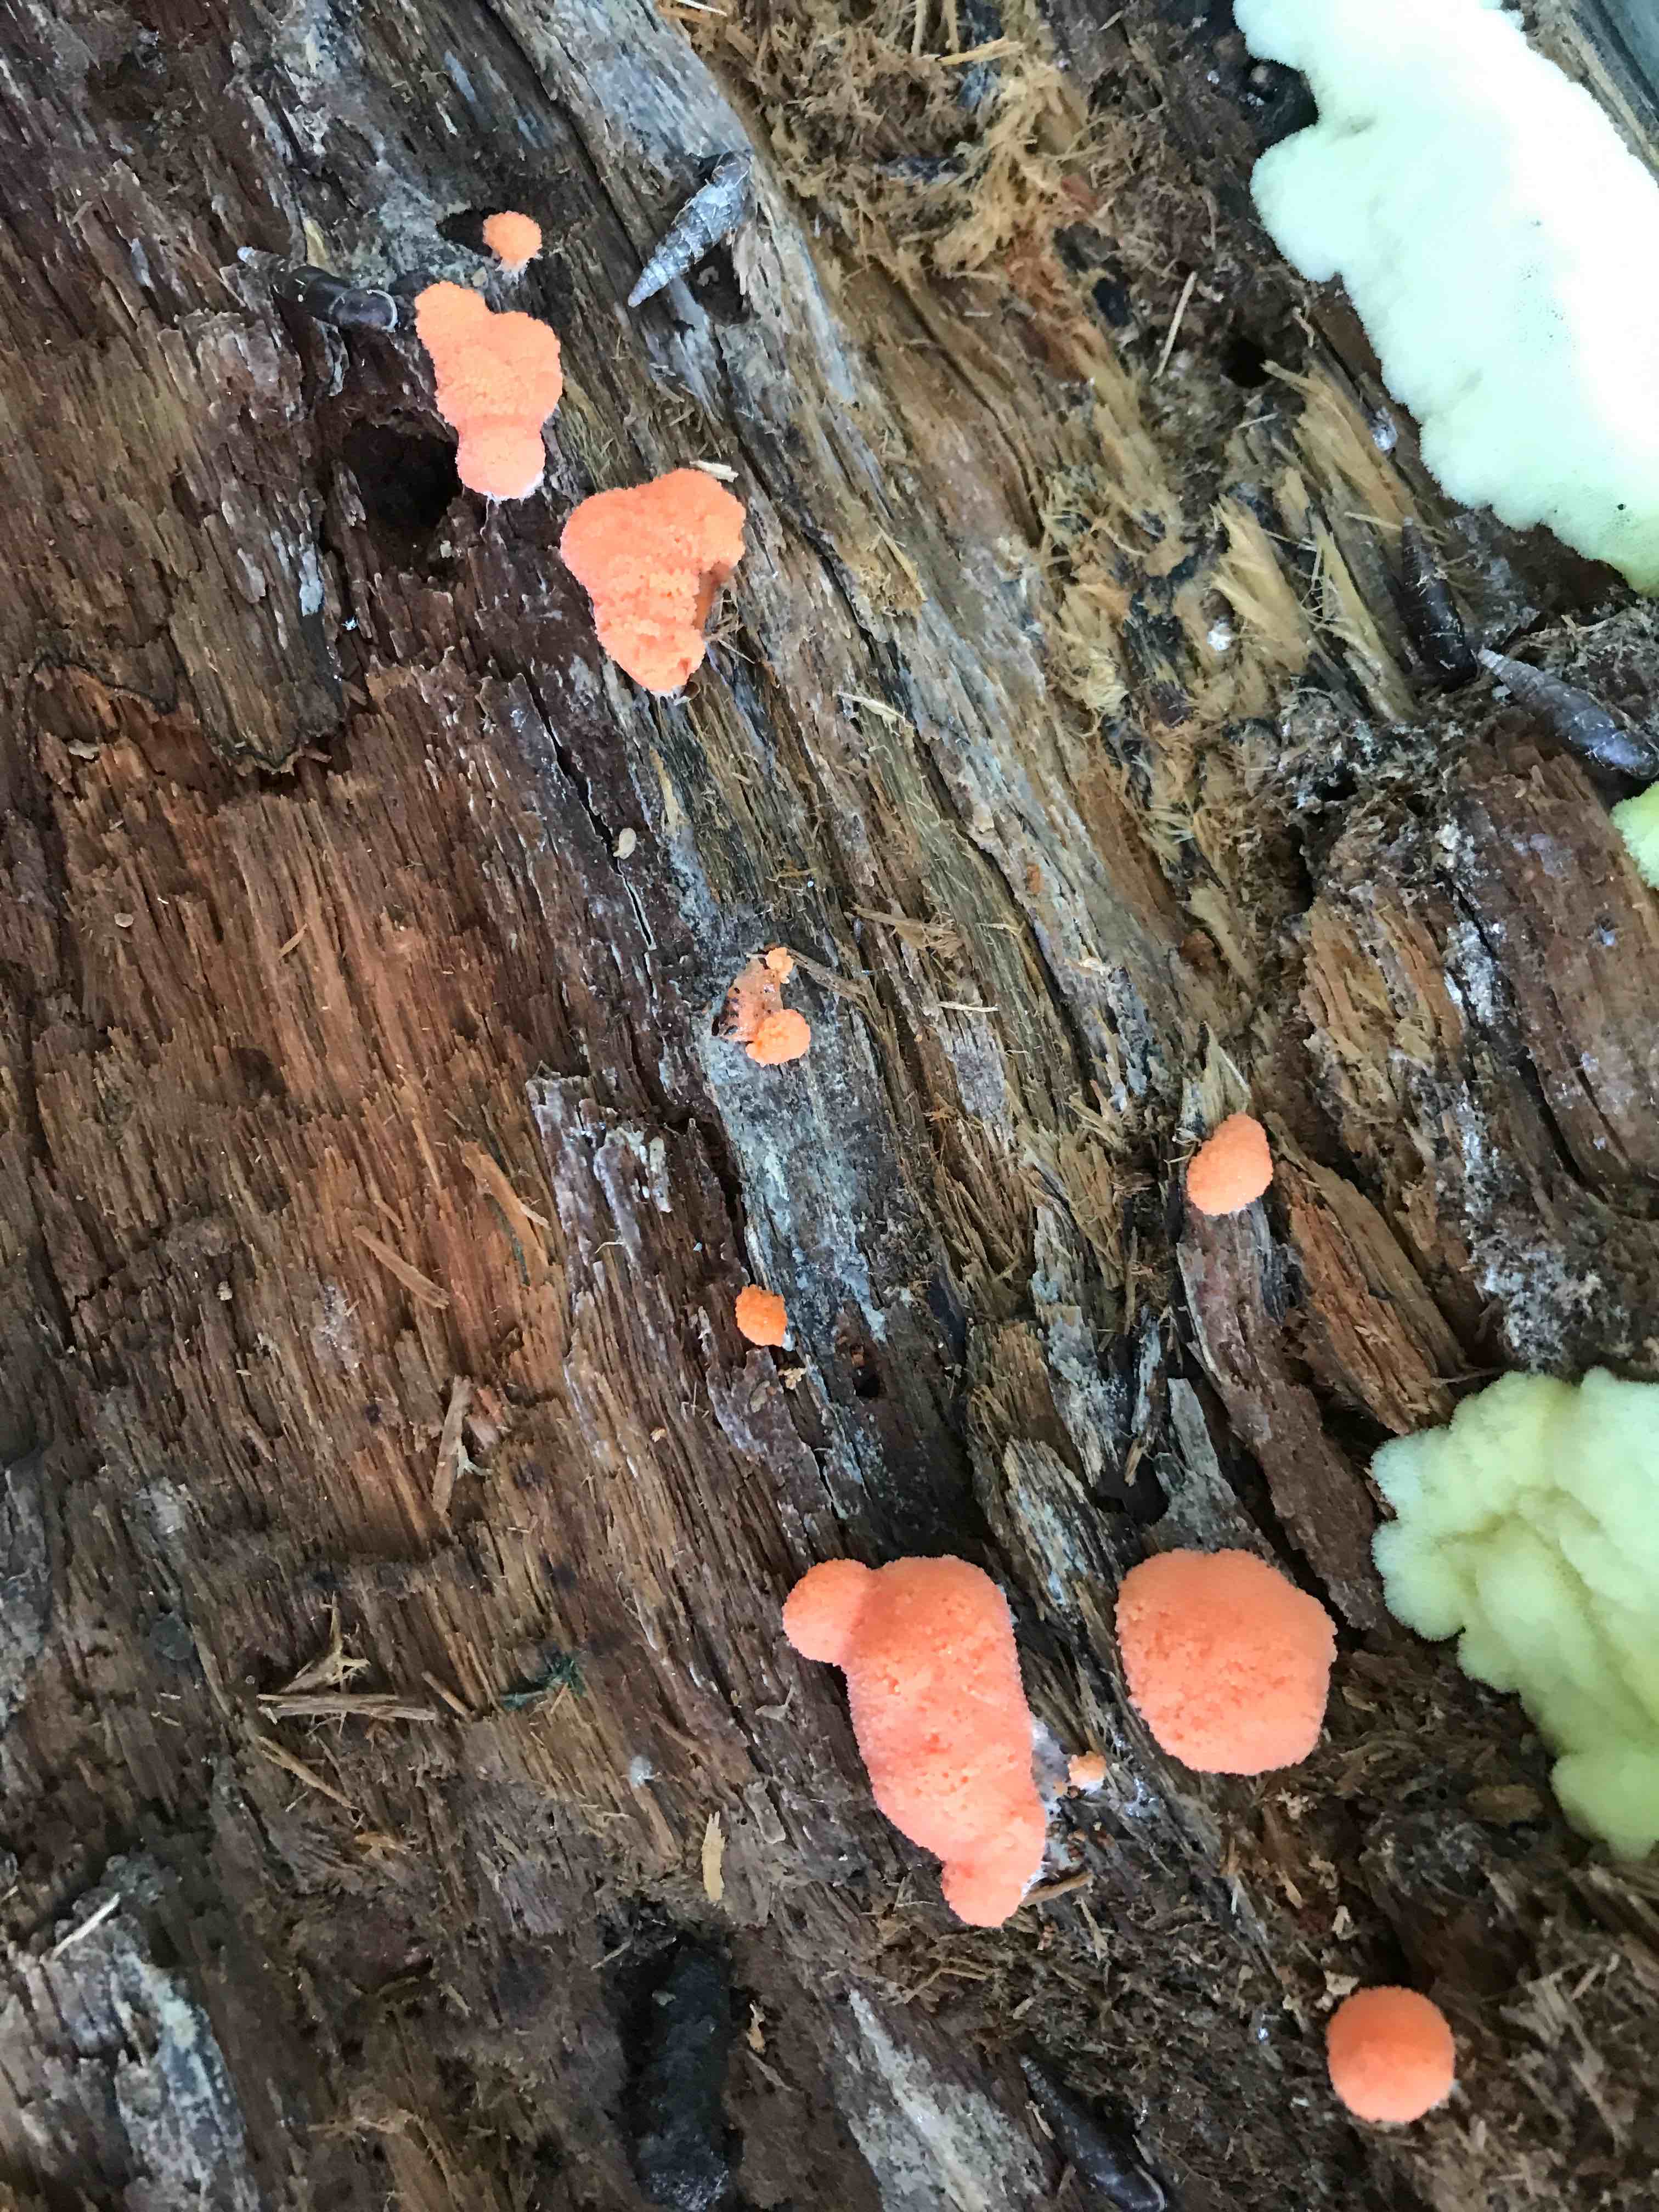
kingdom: Protozoa
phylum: Mycetozoa
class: Myxomycetes
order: Cribrariales
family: Tubiferaceae
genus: Tubifera
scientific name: Tubifera ferruginosa
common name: kanel-støvrør
